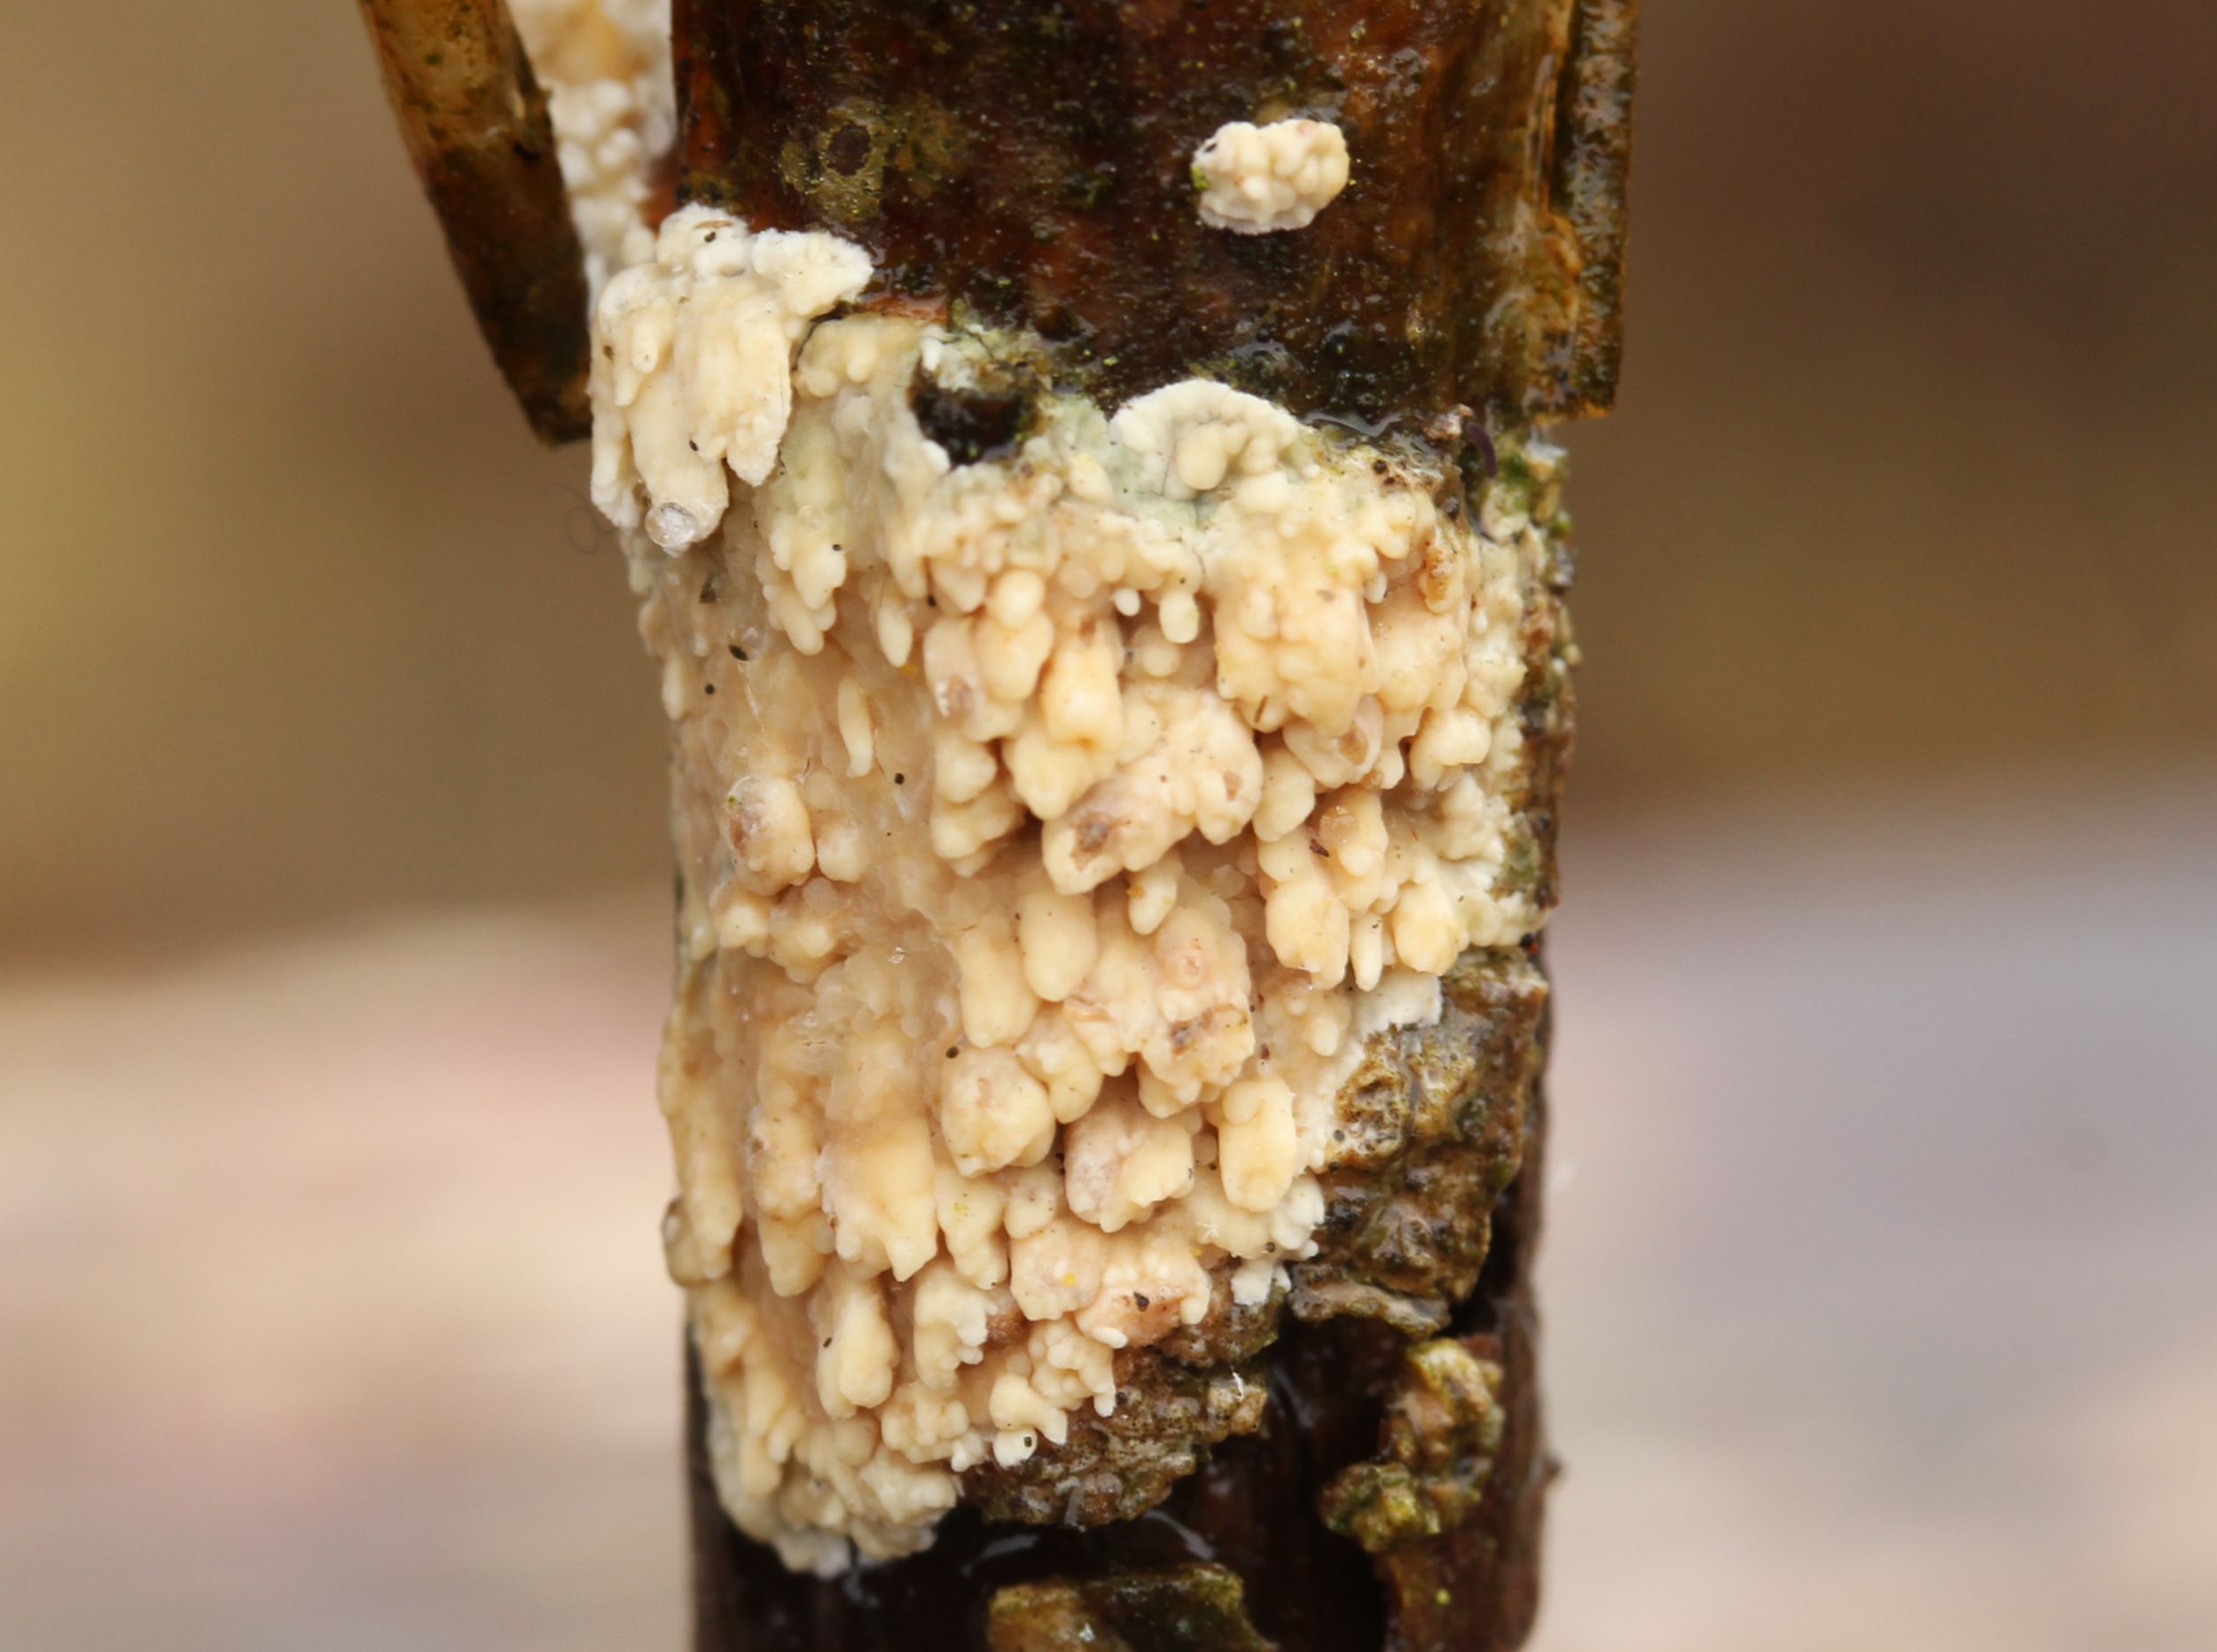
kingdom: Fungi
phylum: Basidiomycota
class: Agaricomycetes
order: Hymenochaetales
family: Schizoporaceae
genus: Xylodon
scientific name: Xylodon radula
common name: grovtandet kalkskind
